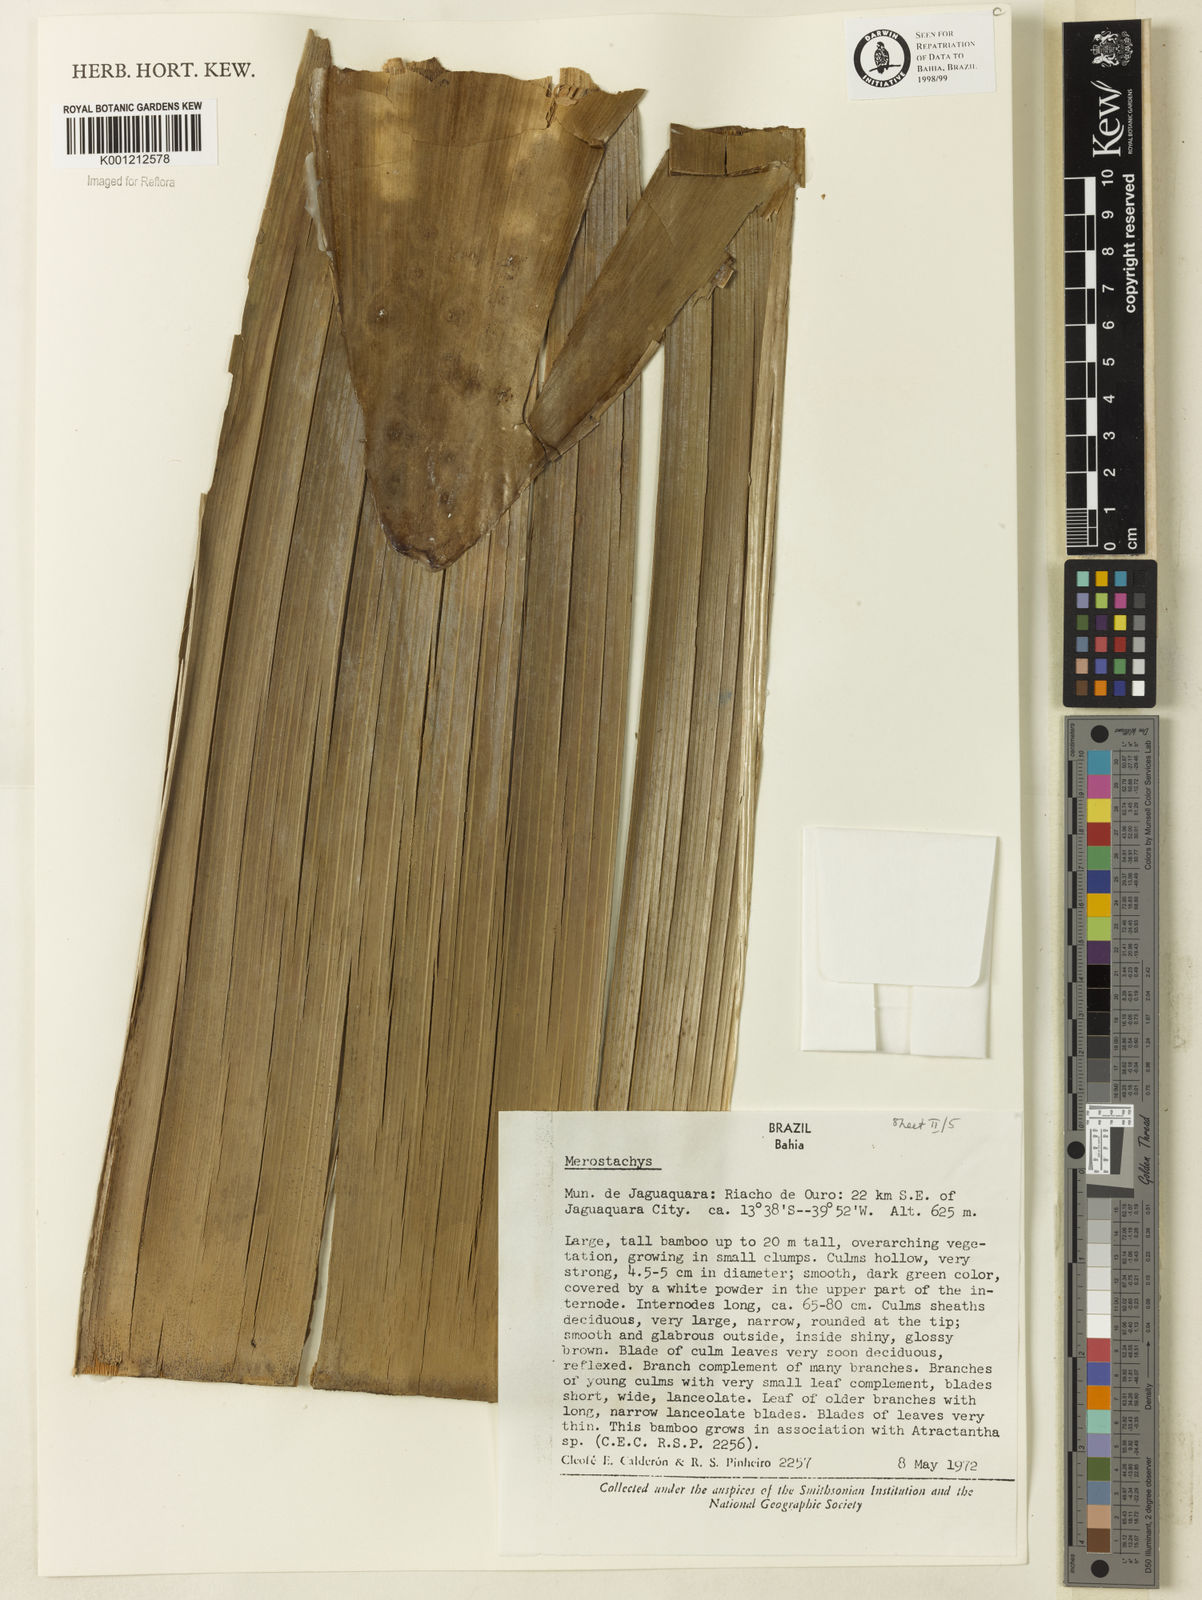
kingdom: Plantae
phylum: Tracheophyta
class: Liliopsida
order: Poales
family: Poaceae
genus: Merostachys
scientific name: Merostachys
